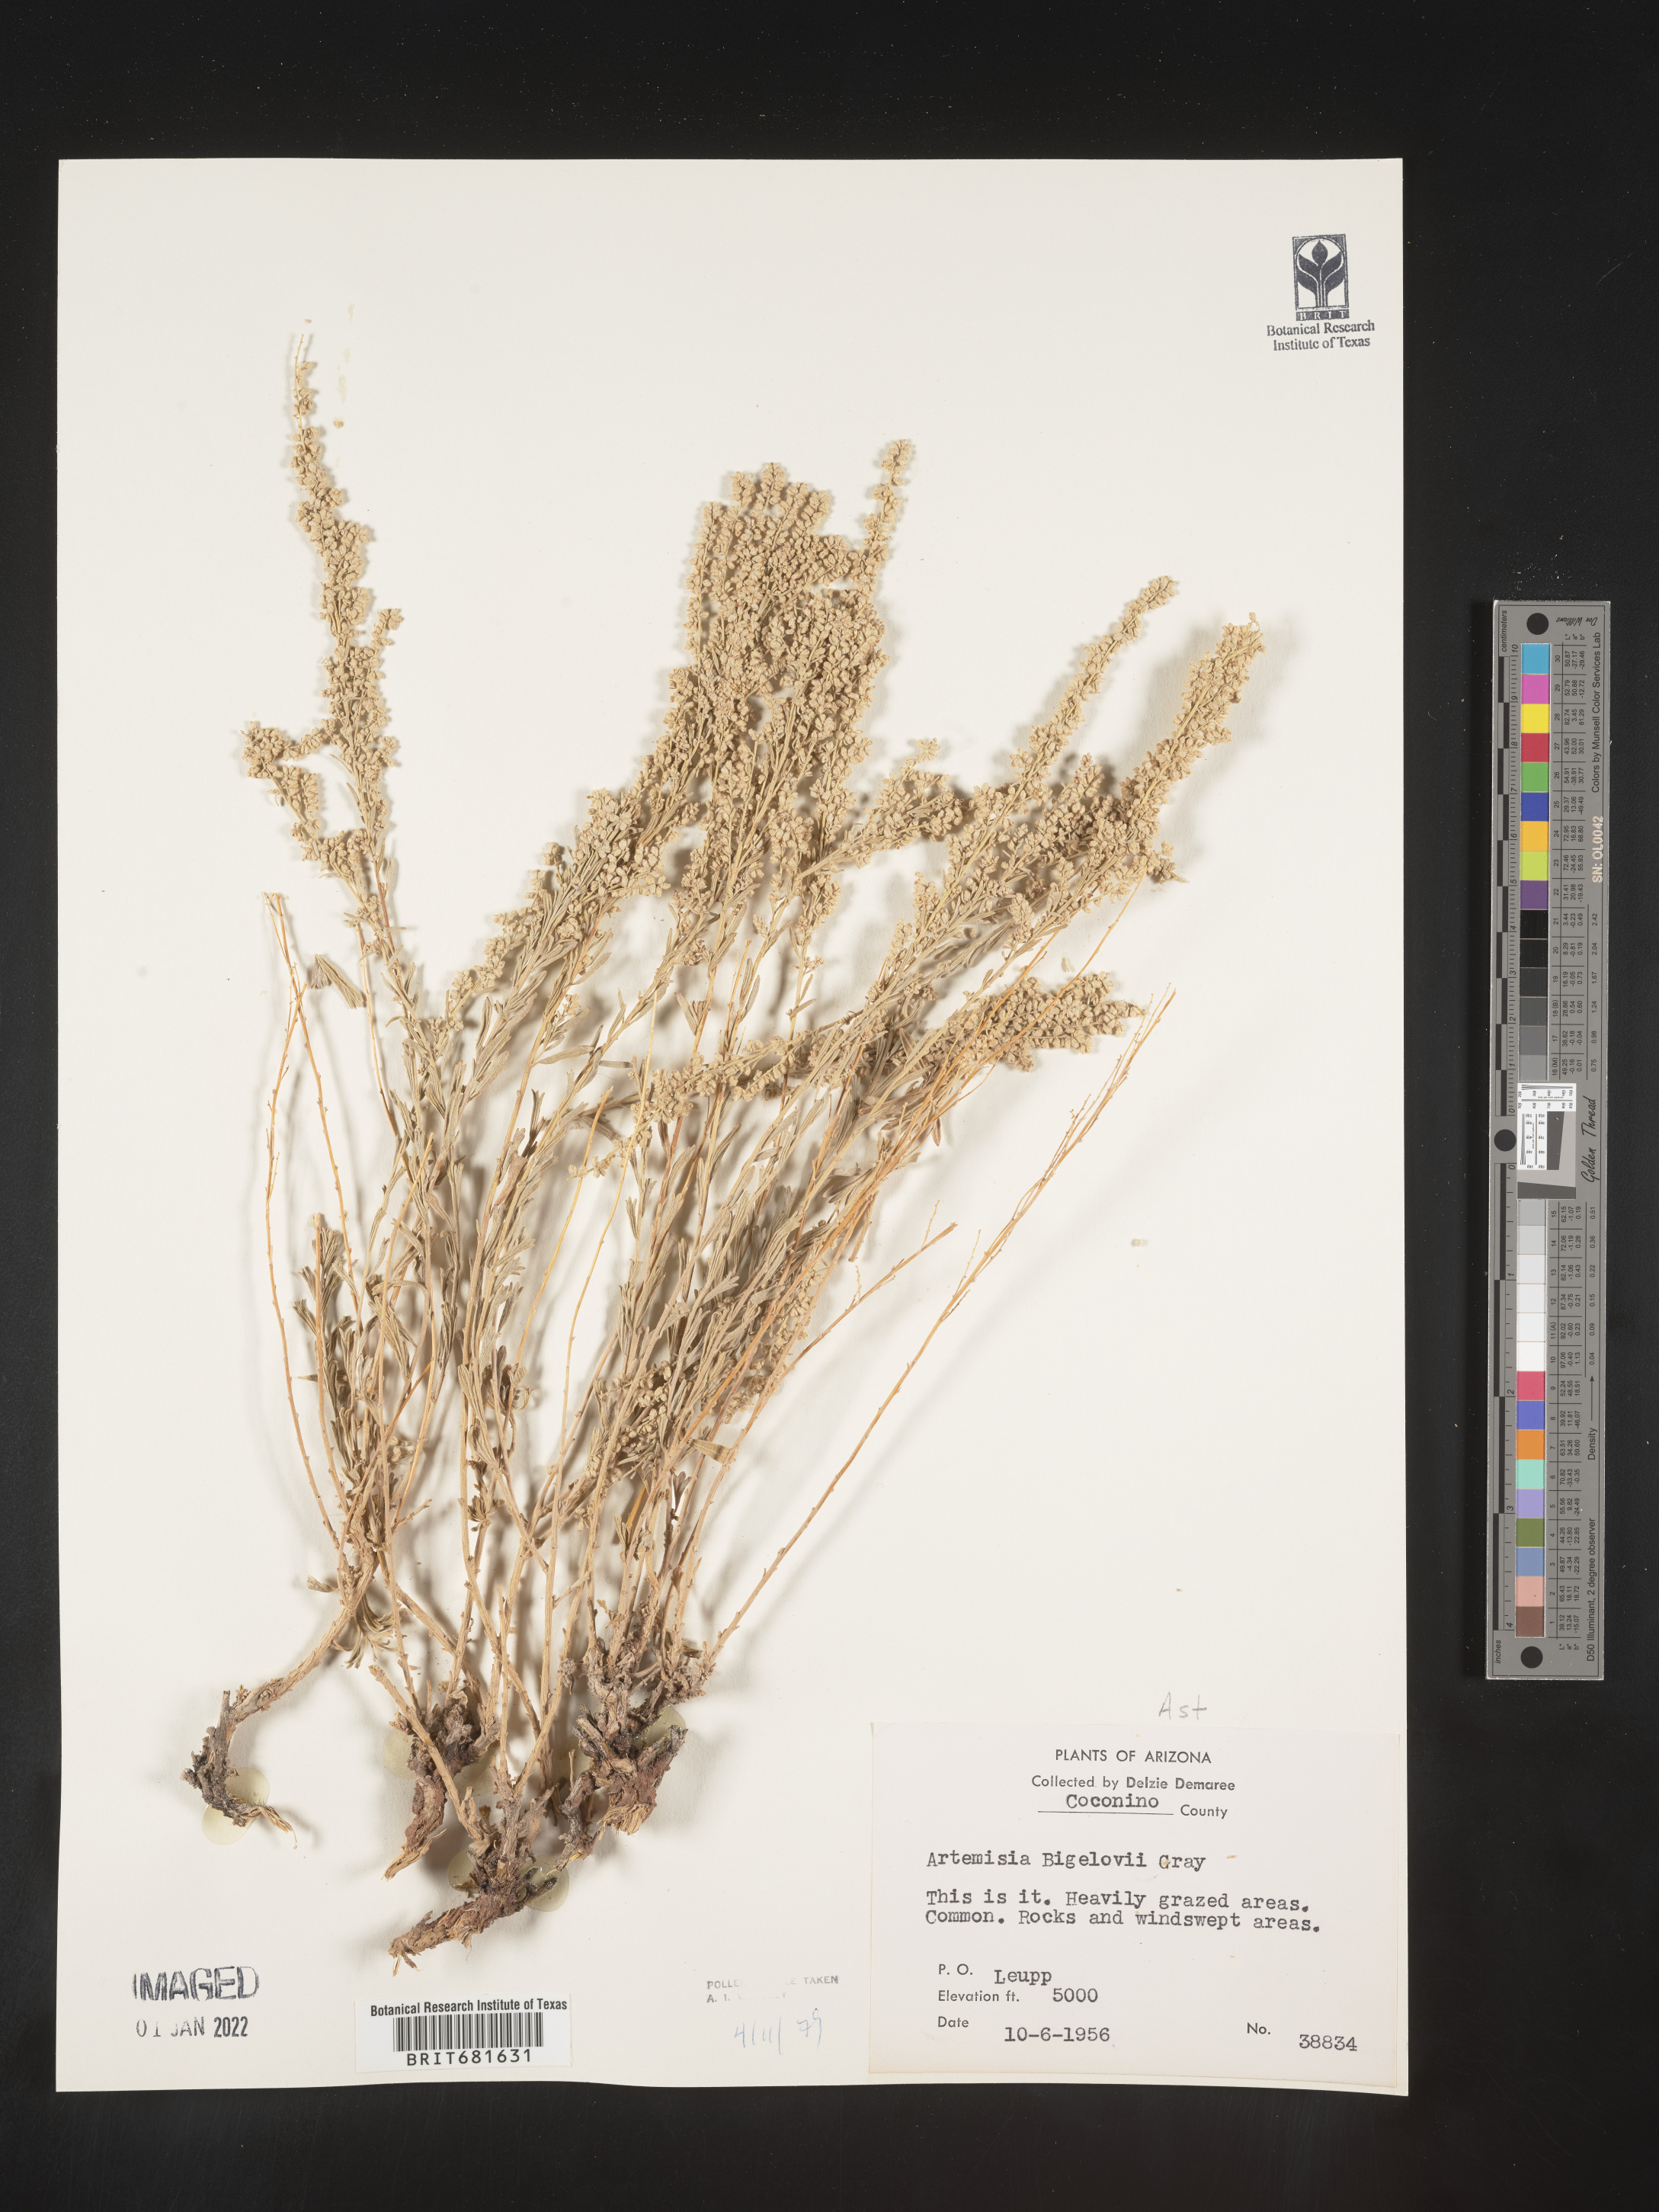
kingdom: Plantae
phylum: Tracheophyta
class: Magnoliopsida
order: Asterales
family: Asteraceae
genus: Artemisia
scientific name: Artemisia bigelovii
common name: Bigelow sagebrush
